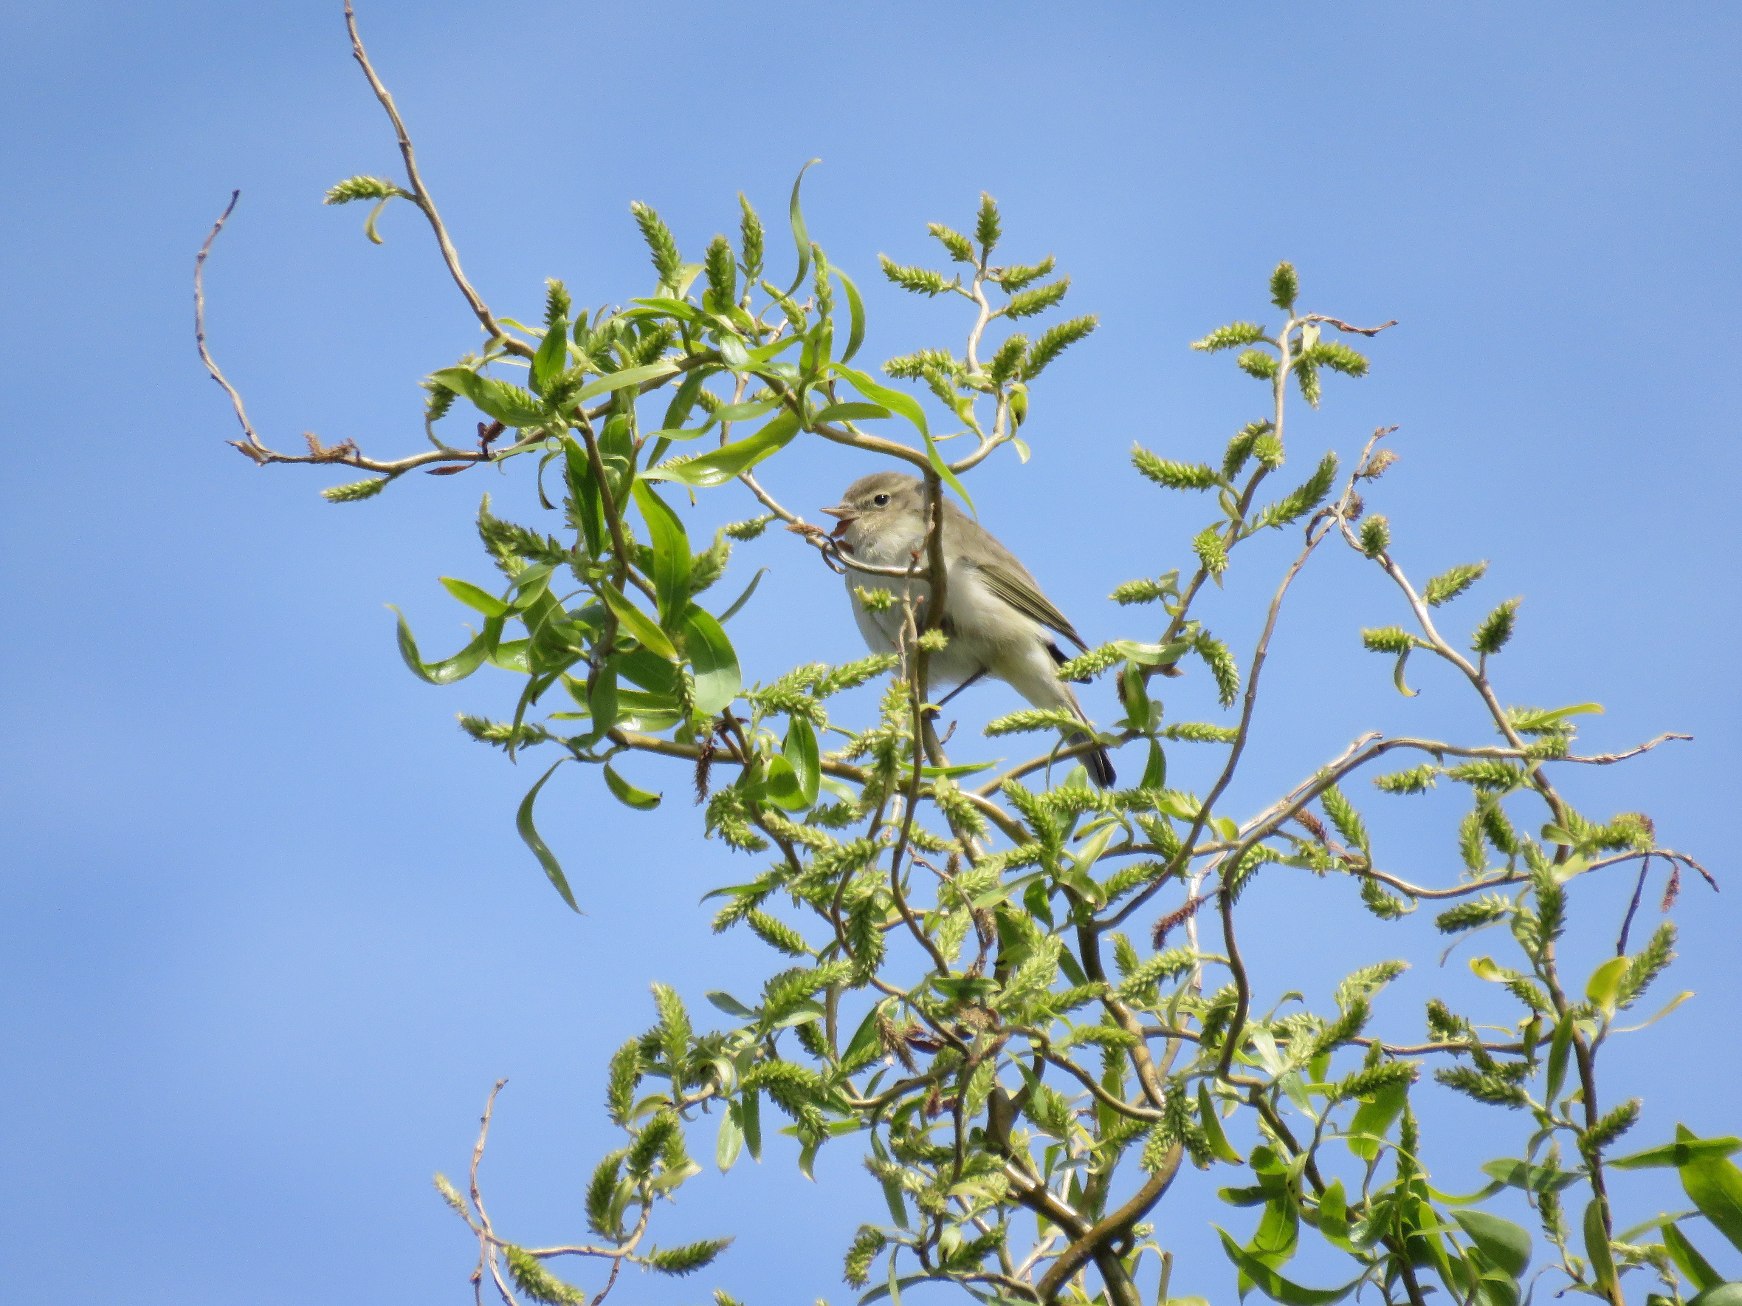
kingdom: Animalia
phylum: Chordata
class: Aves
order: Passeriformes
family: Phylloscopidae
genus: Phylloscopus
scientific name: Phylloscopus collybita
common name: Gransanger
